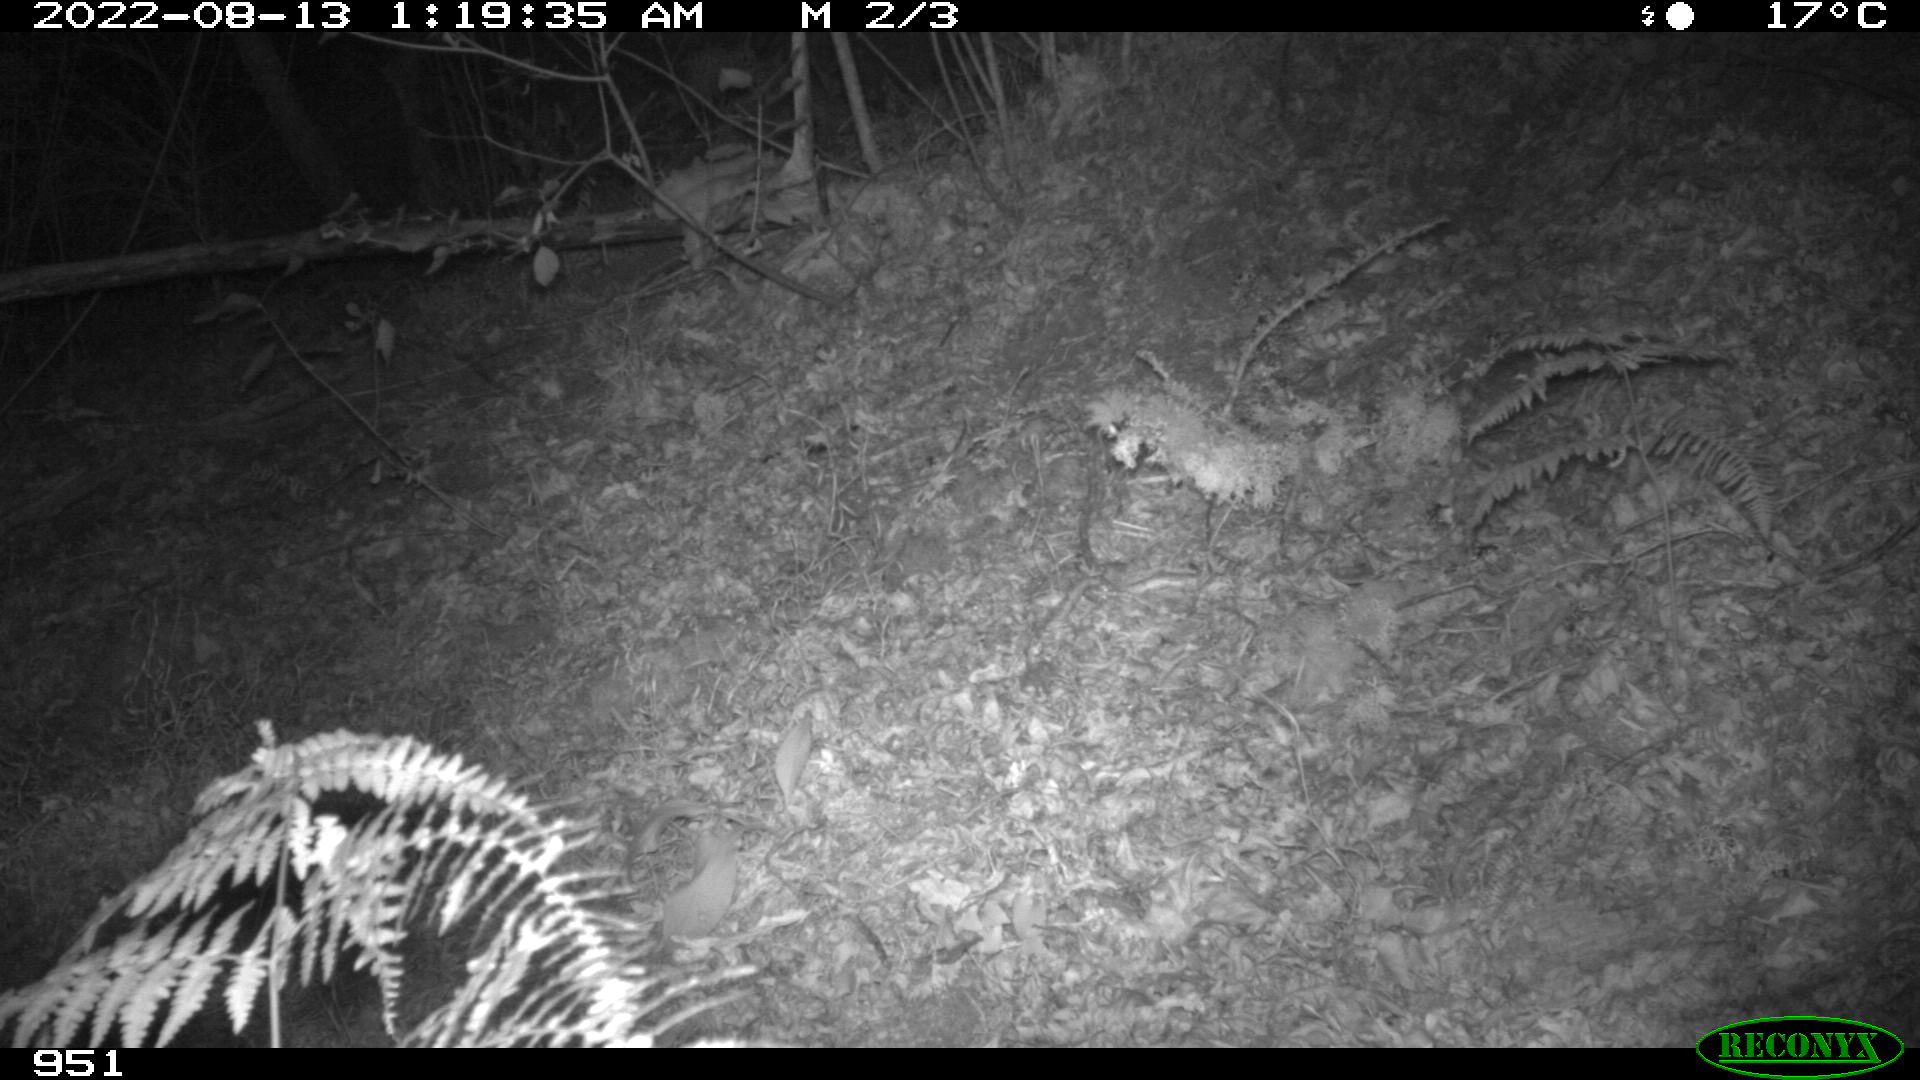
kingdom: Animalia
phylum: Chordata
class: Mammalia
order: Artiodactyla
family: Suidae
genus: Sus
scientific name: Sus scrofa
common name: Wild boar
